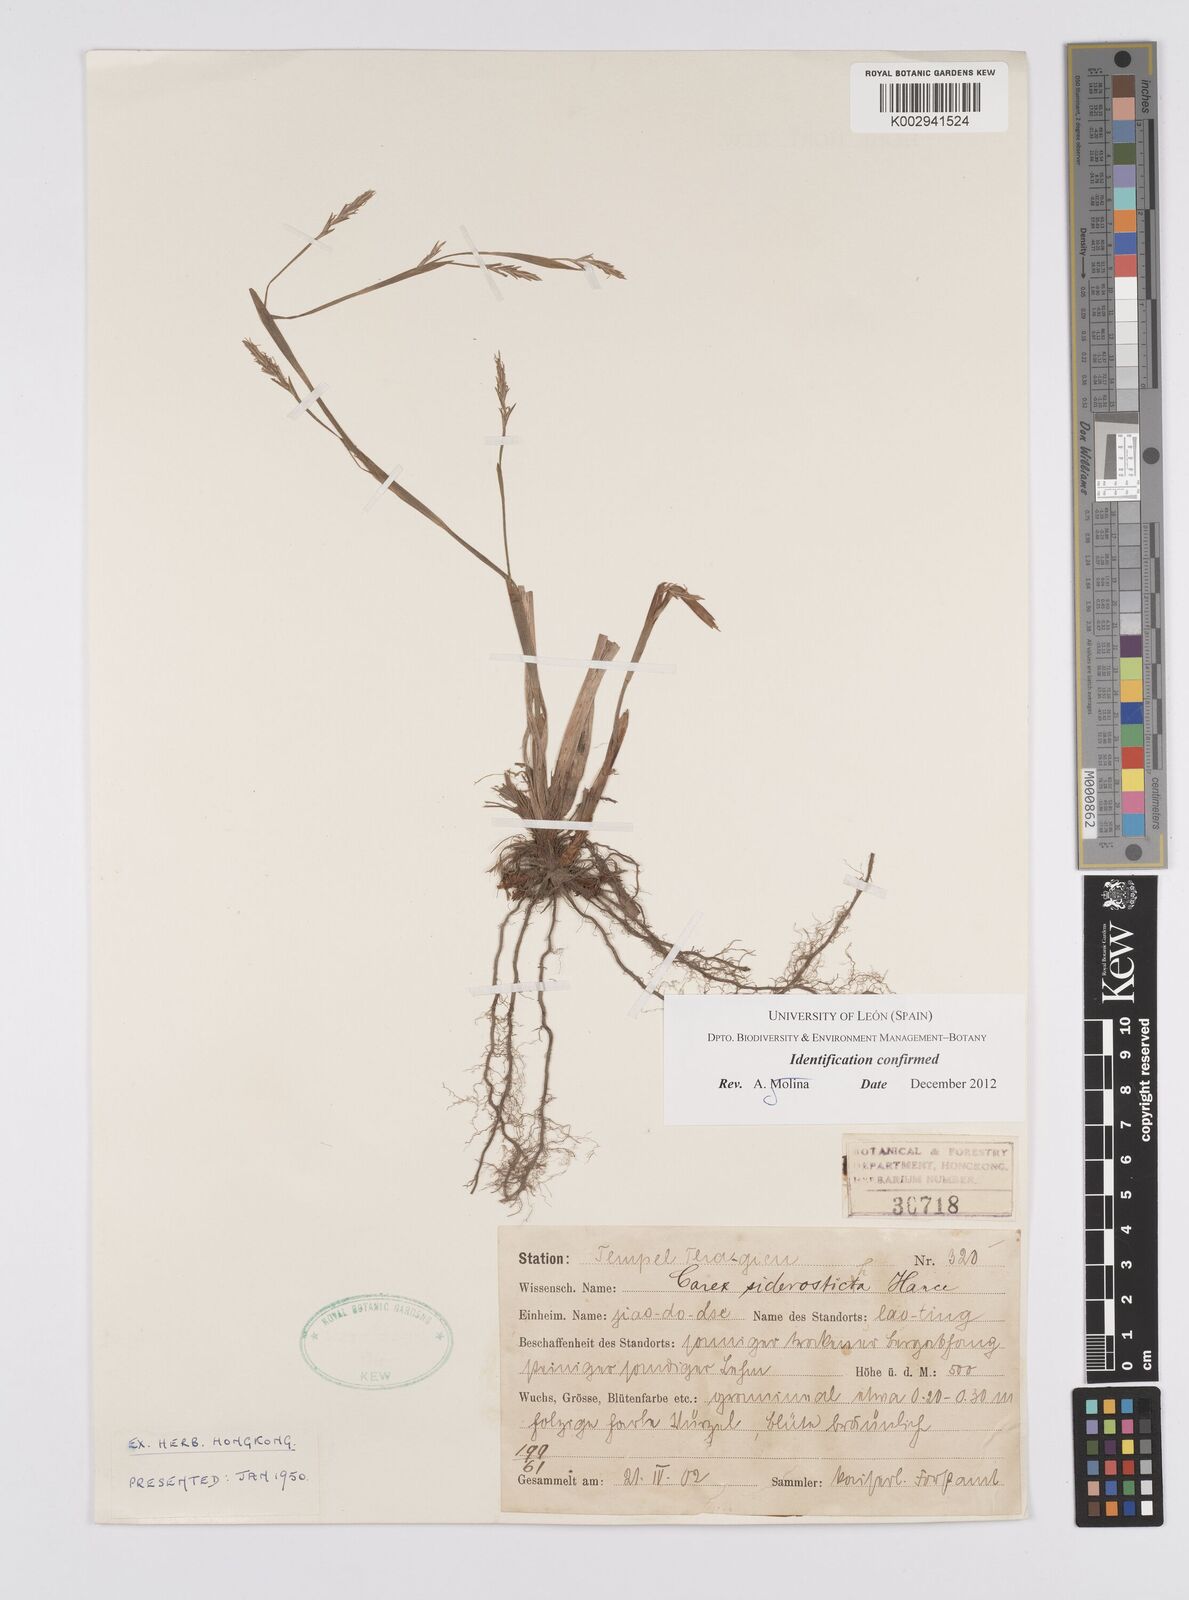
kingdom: Plantae
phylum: Tracheophyta
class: Liliopsida
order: Poales
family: Cyperaceae
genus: Carex
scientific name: Carex siderosticta
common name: Broadleaf sedge
